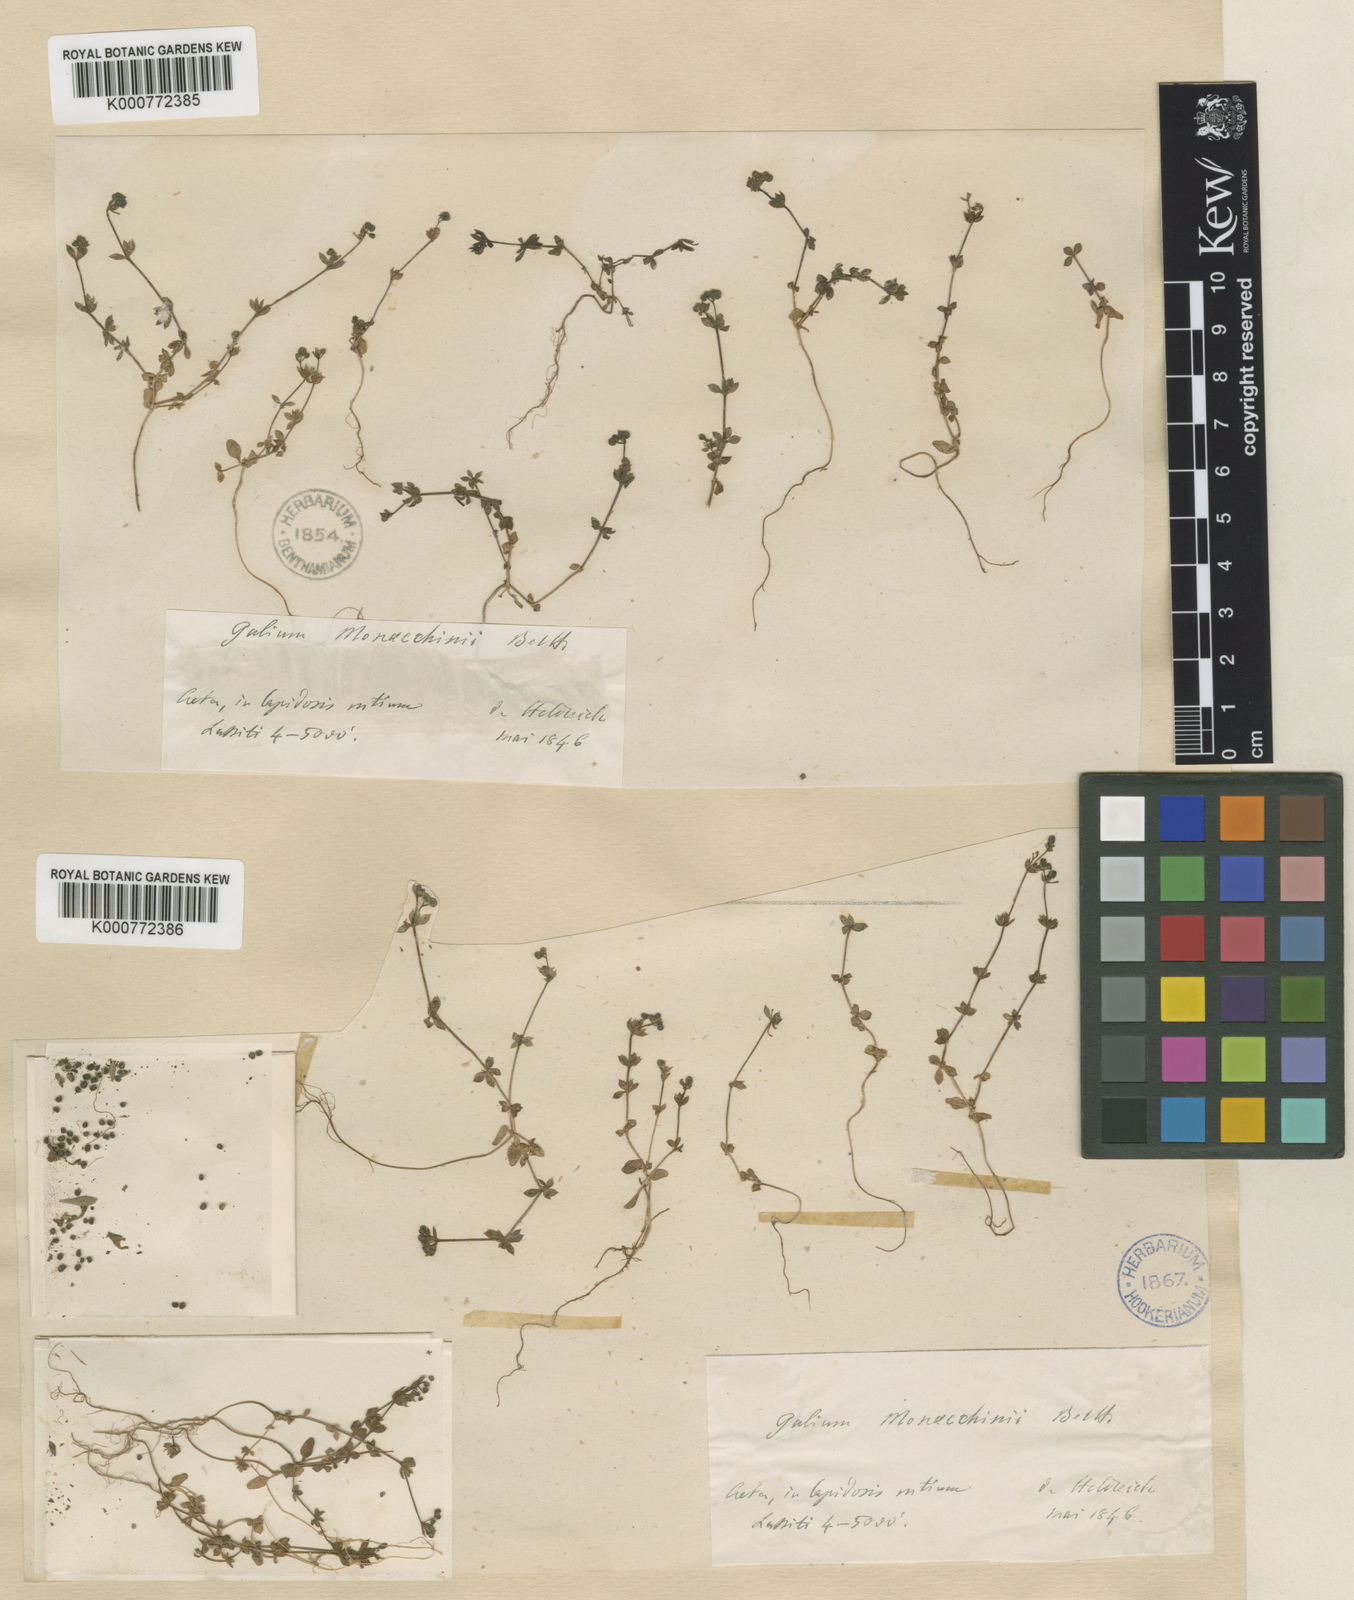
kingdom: Plantae
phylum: Tracheophyta
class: Magnoliopsida
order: Gentianales
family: Rubiaceae
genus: Galium
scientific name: Galium monachinii
